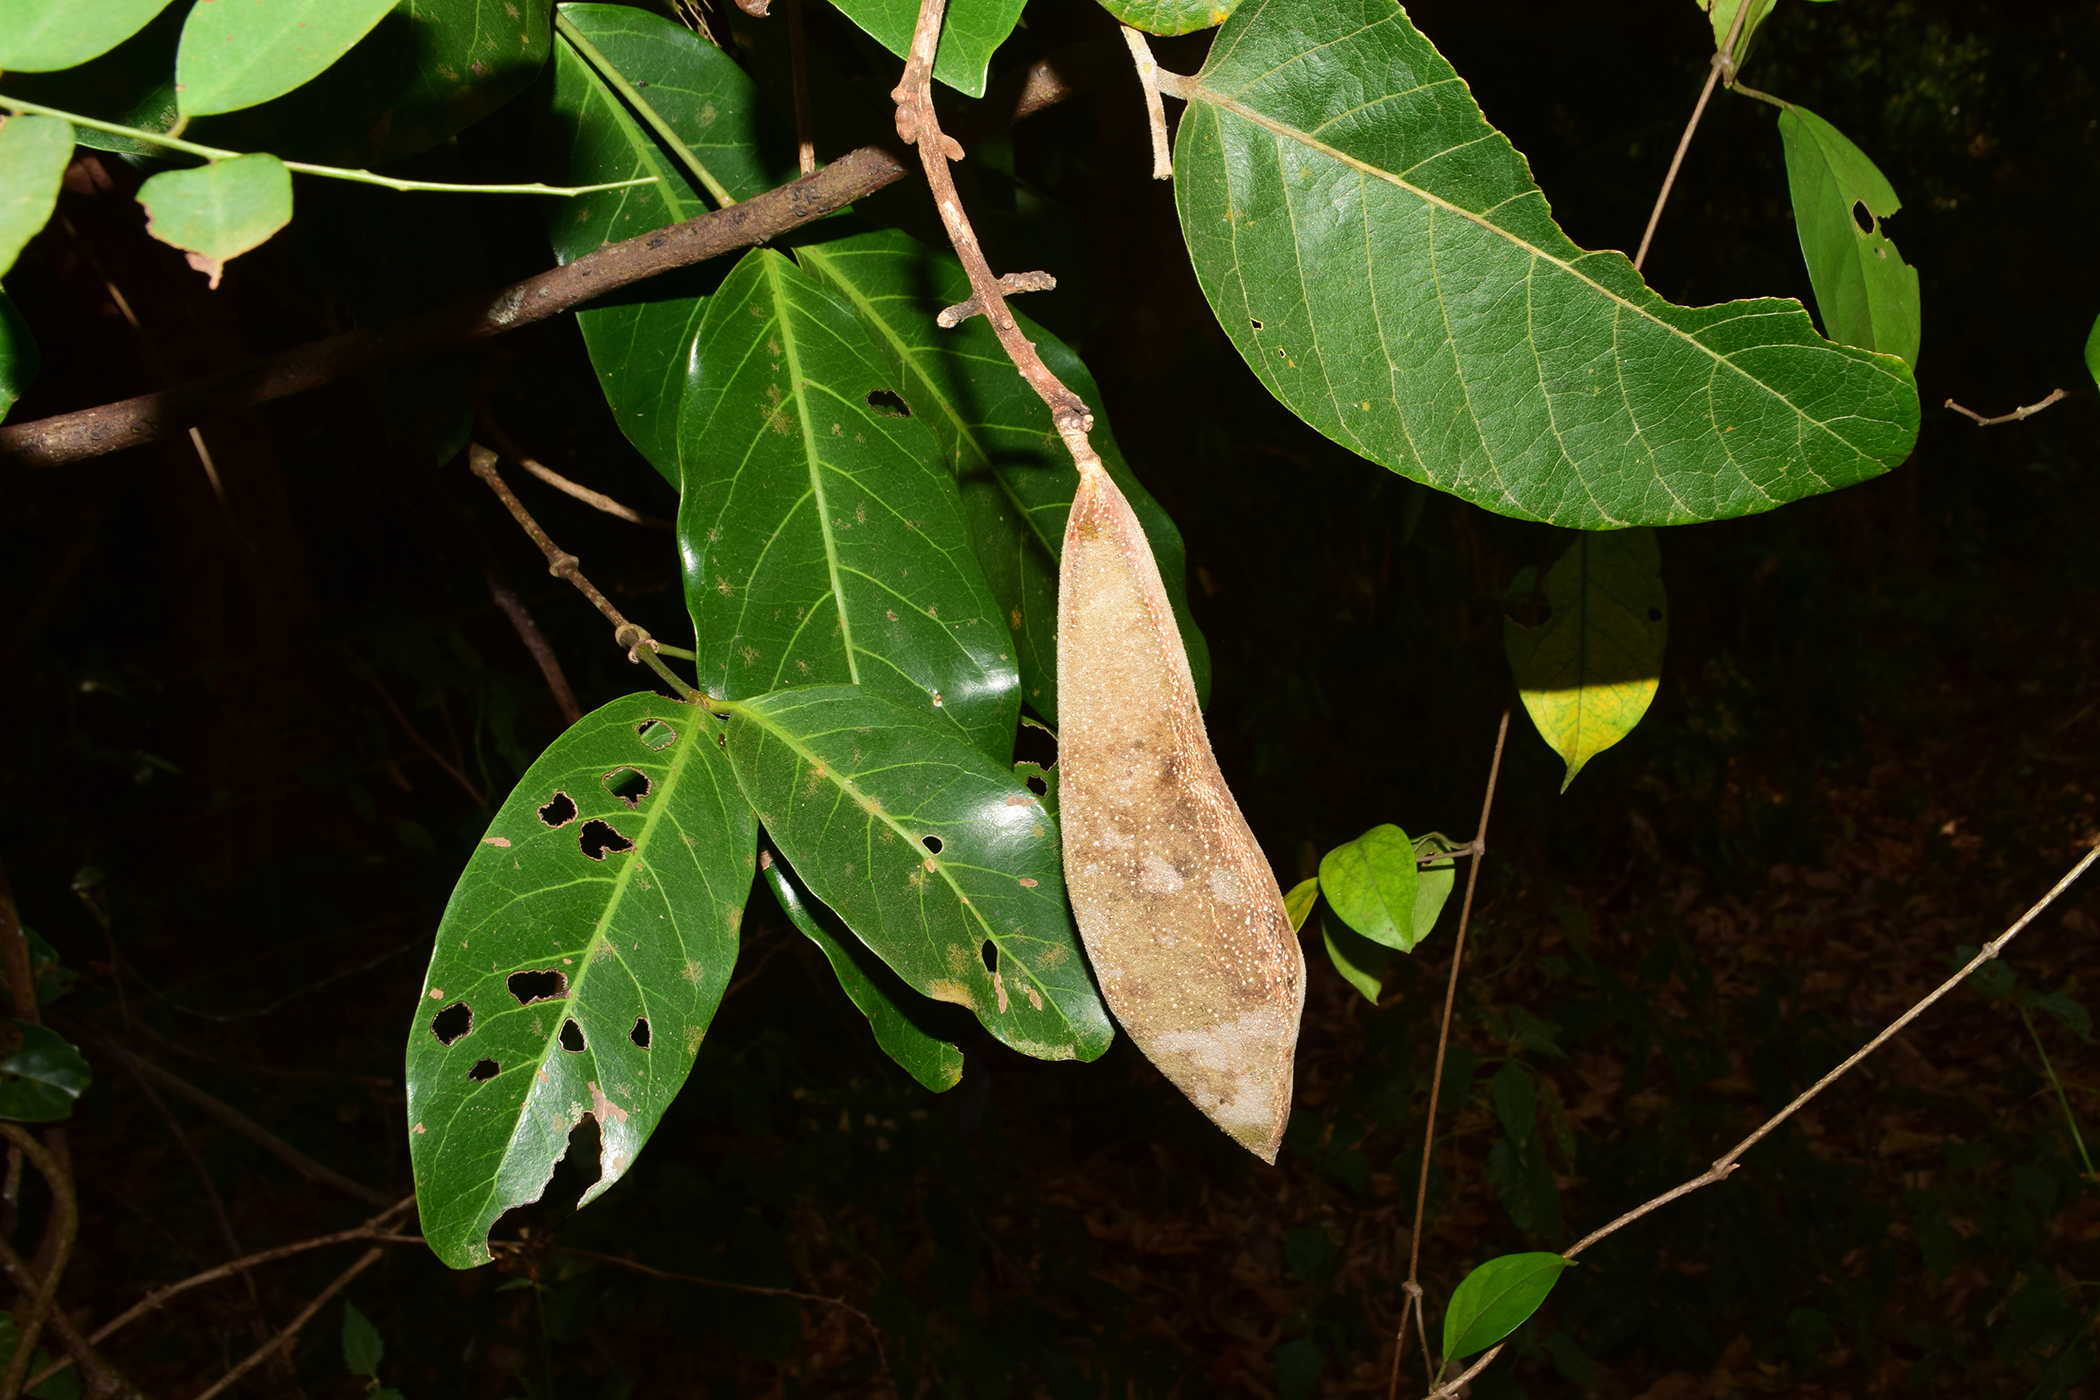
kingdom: Plantae
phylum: Tracheophyta
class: Magnoliopsida
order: Fabales
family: Fabaceae
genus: Millettia
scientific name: Millettia
